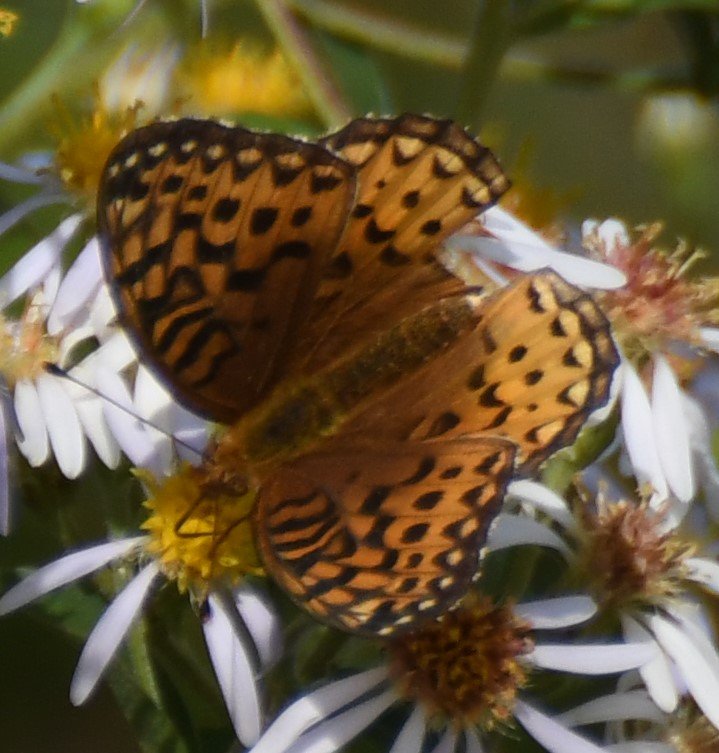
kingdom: Animalia
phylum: Arthropoda
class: Insecta
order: Lepidoptera
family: Nymphalidae
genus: Speyeria
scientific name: Speyeria aphrodite
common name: Aphrodite Fritillary
